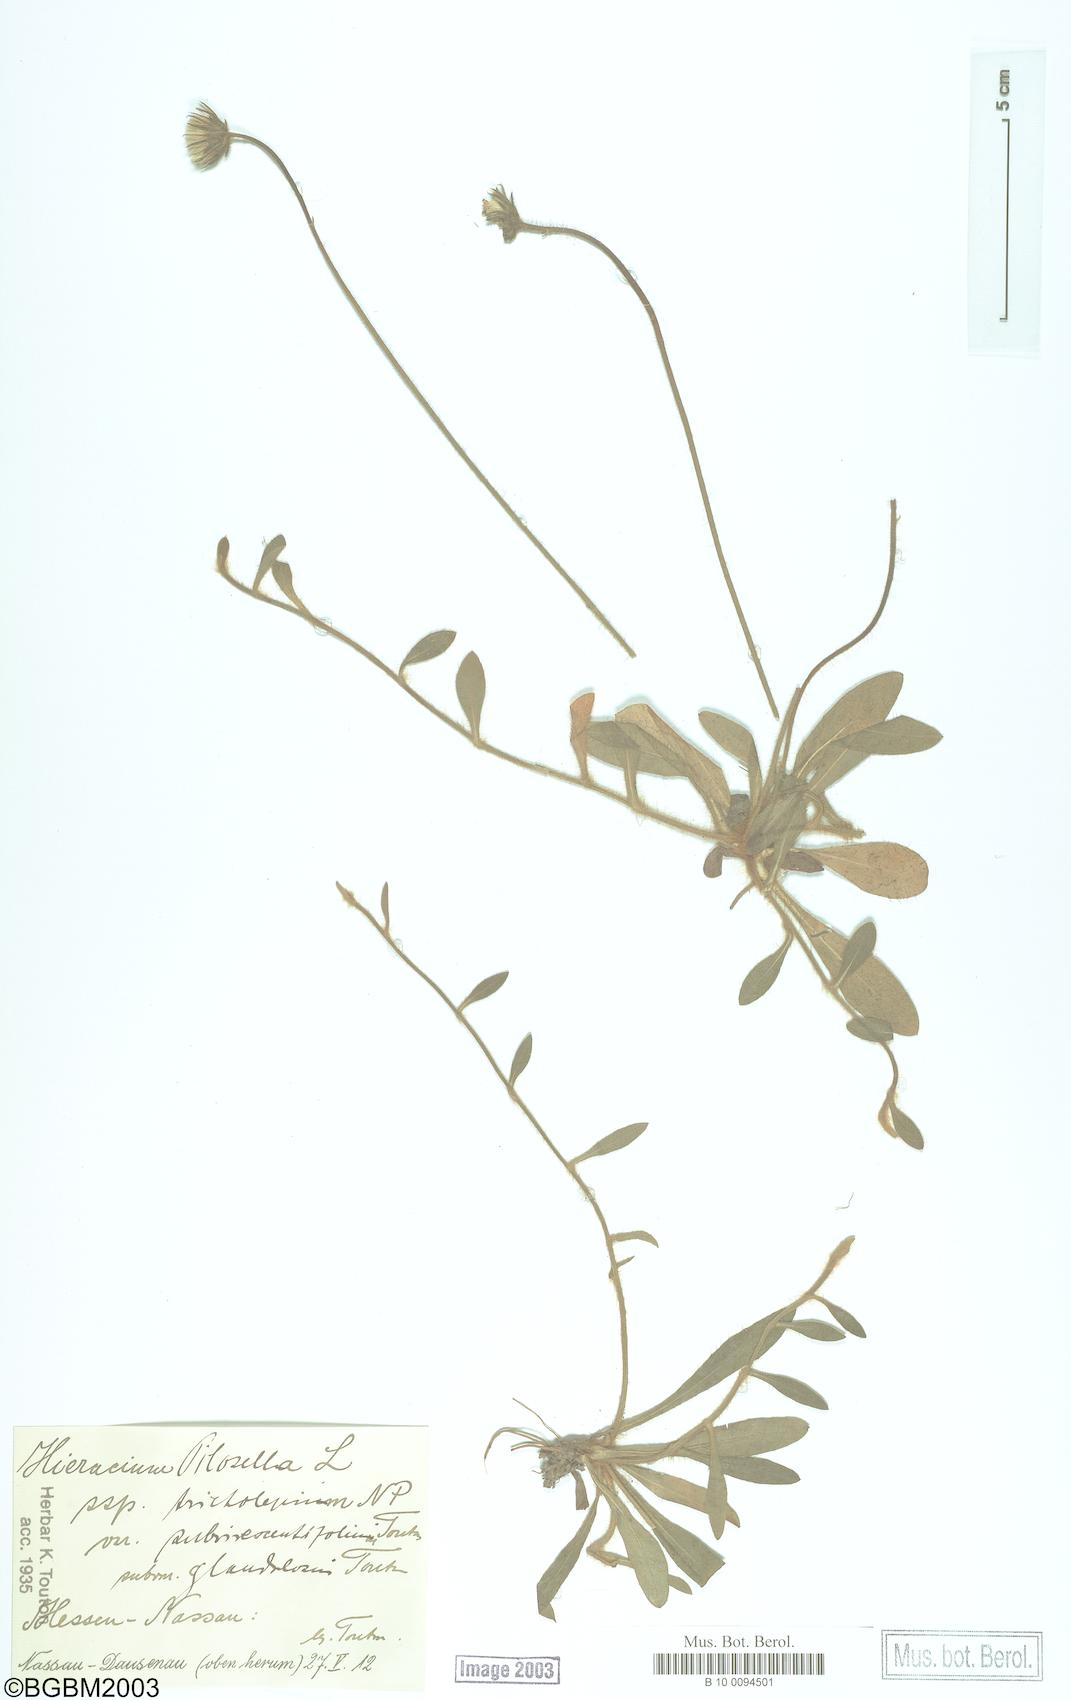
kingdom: Plantae
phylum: Tracheophyta
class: Magnoliopsida
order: Asterales
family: Asteraceae
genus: Pilosella
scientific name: Pilosella officinarum
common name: Mouse-ear hawkweed
